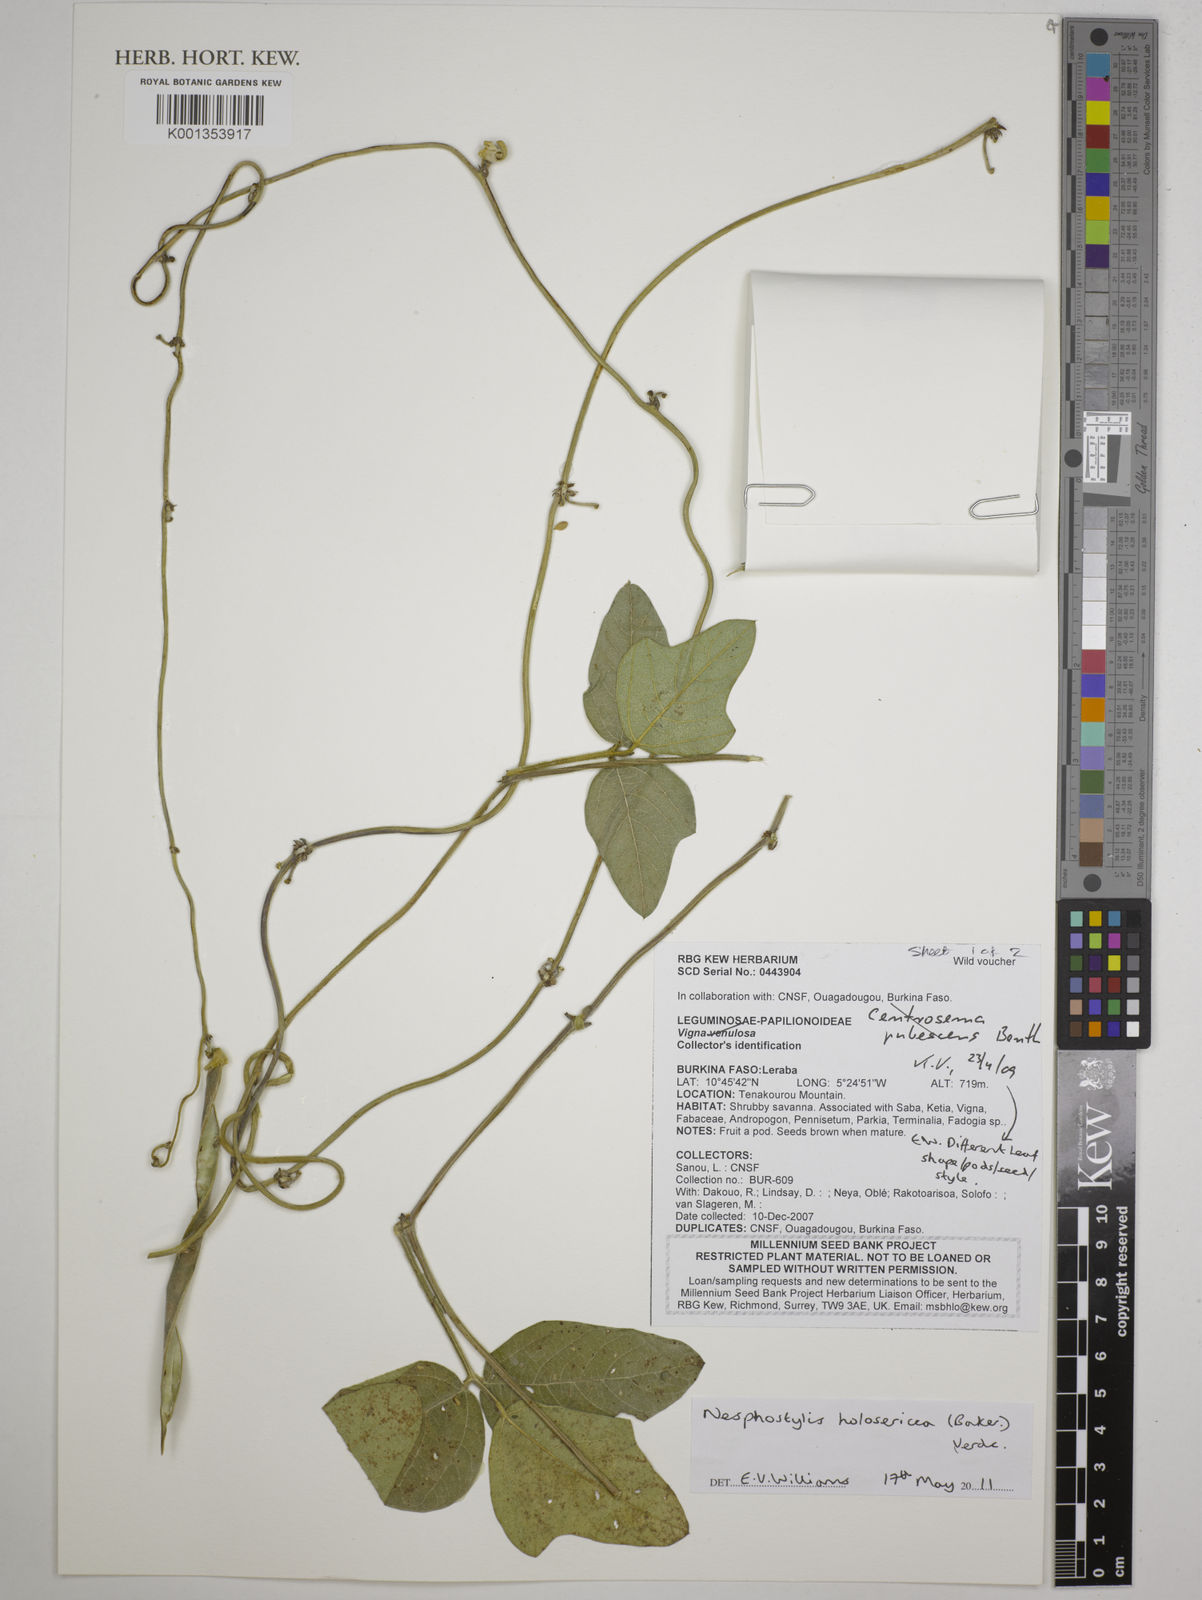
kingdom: Plantae
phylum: Tracheophyta
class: Magnoliopsida
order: Fabales
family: Fabaceae
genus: Nesphostylis
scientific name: Nesphostylis holosericea
